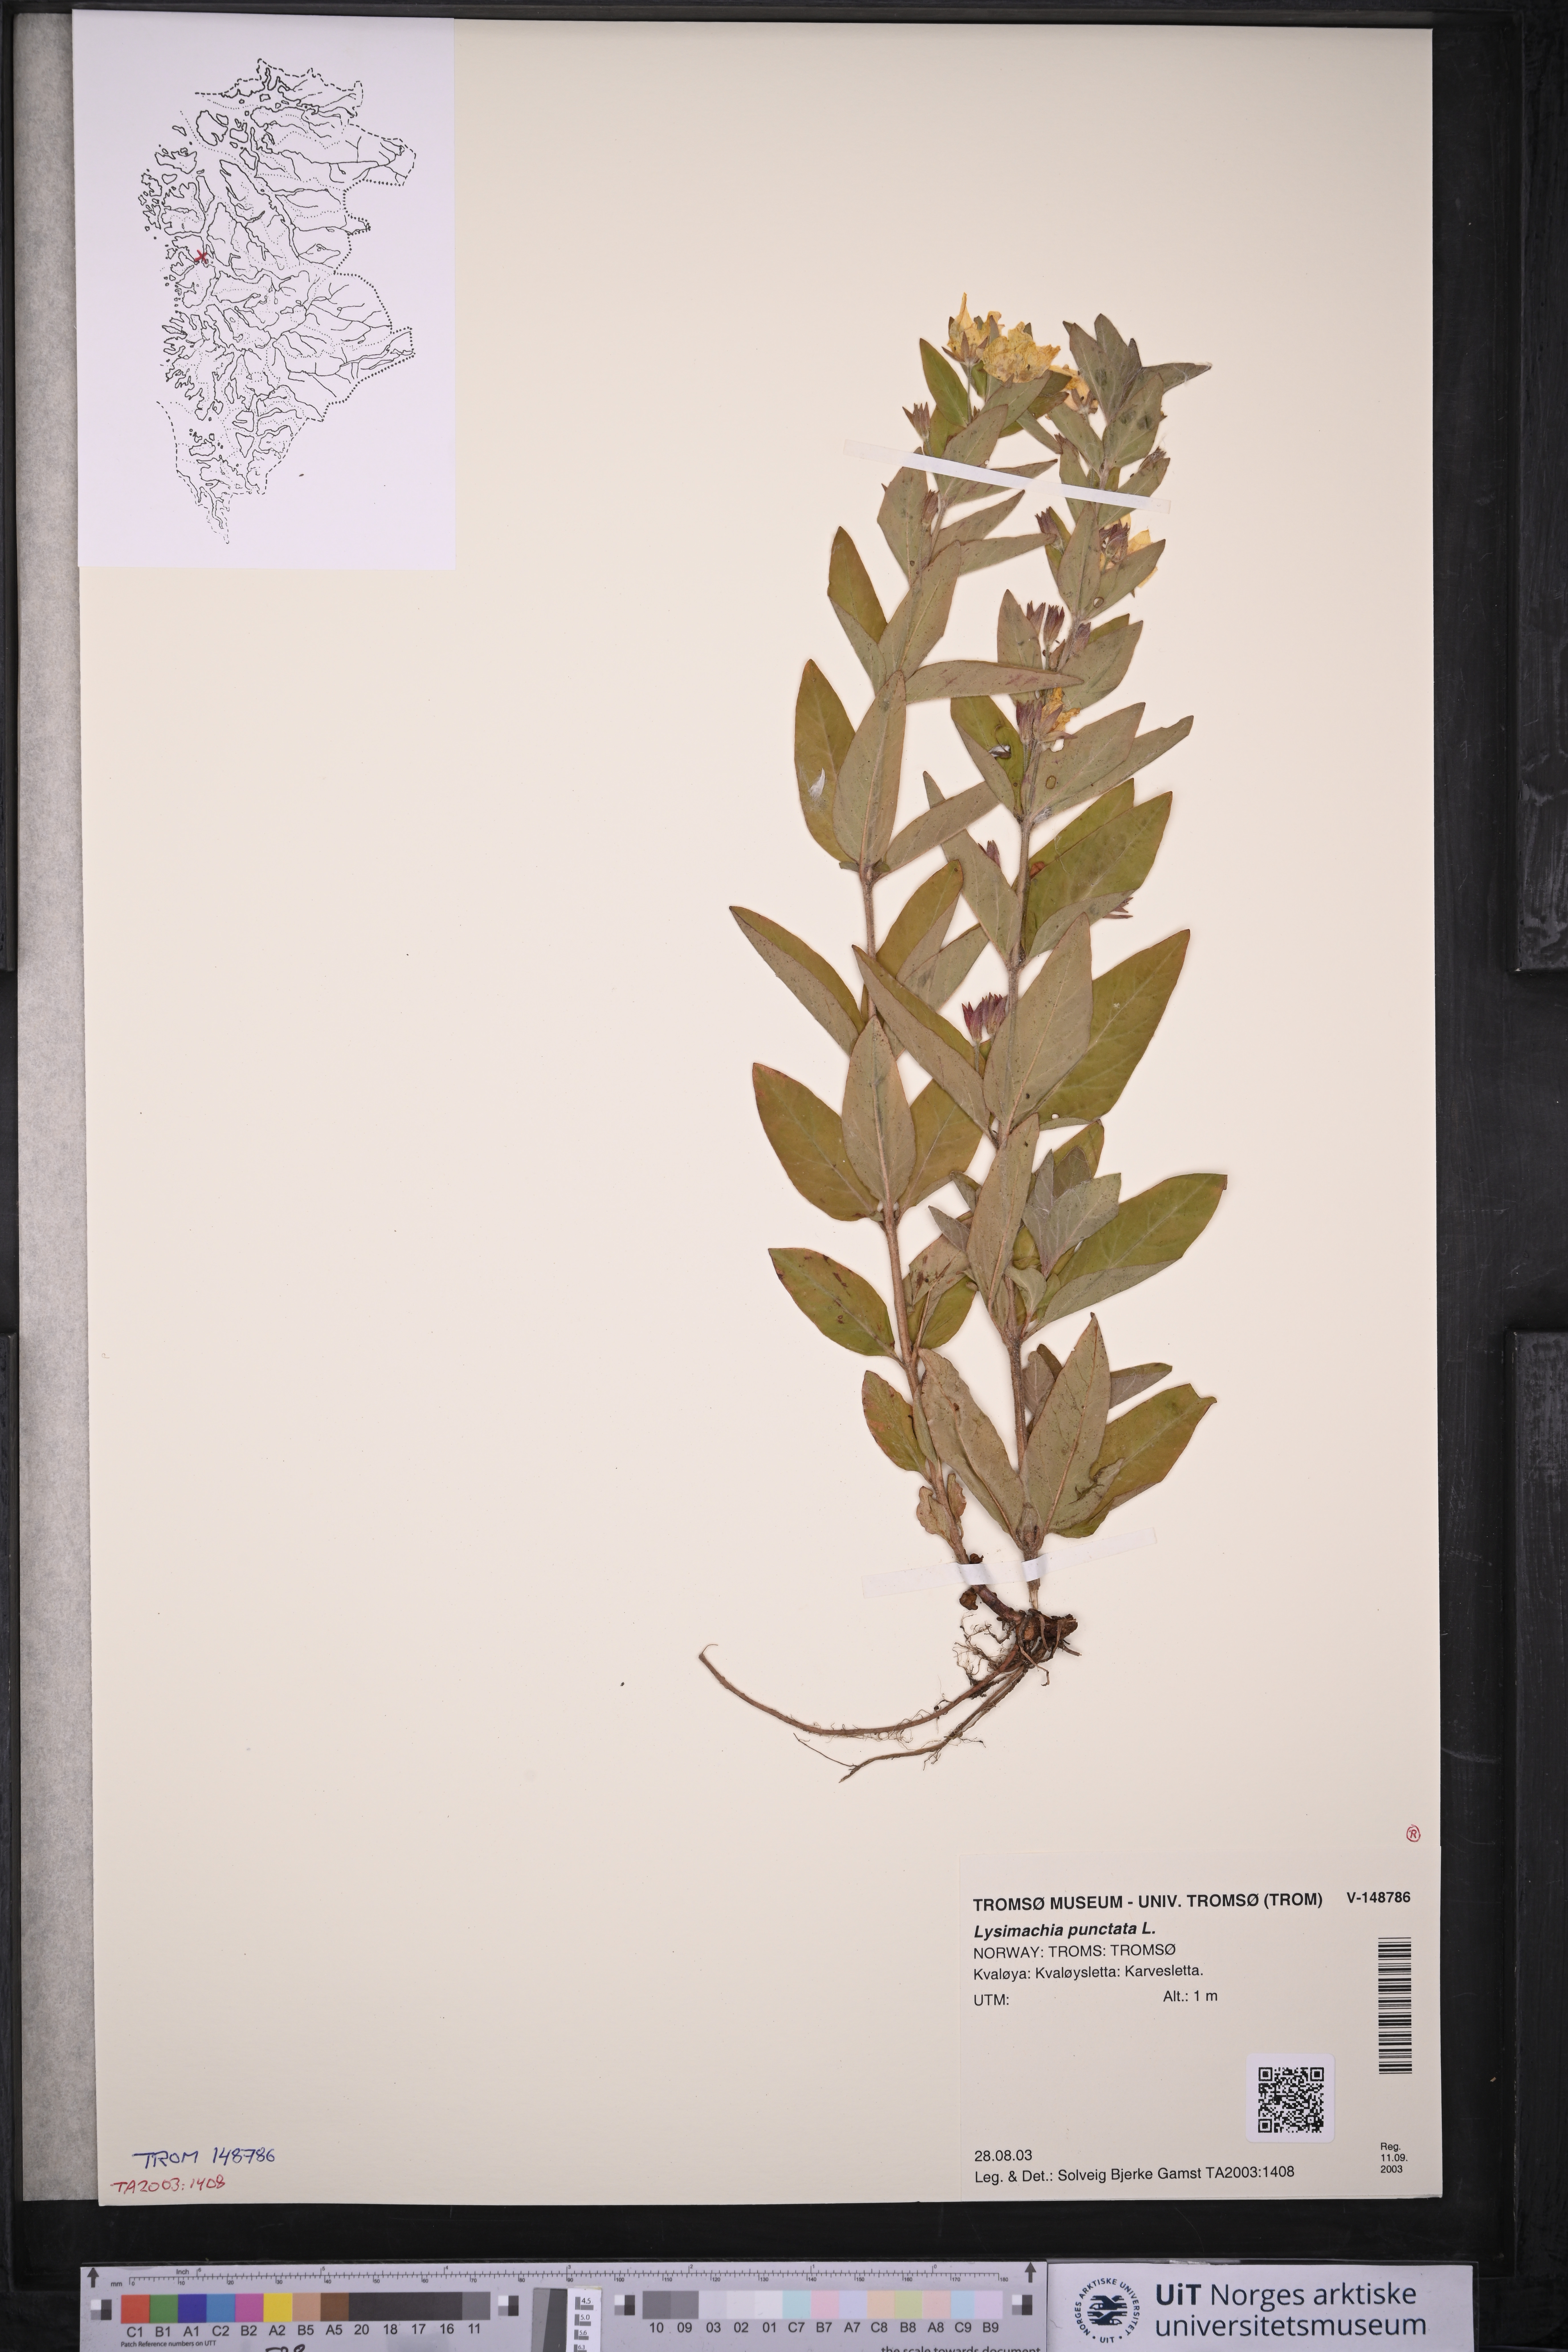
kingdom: Plantae
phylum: Tracheophyta
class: Magnoliopsida
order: Ericales
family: Primulaceae
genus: Lysimachia
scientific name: Lysimachia punctata
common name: Dotted loosestrife
